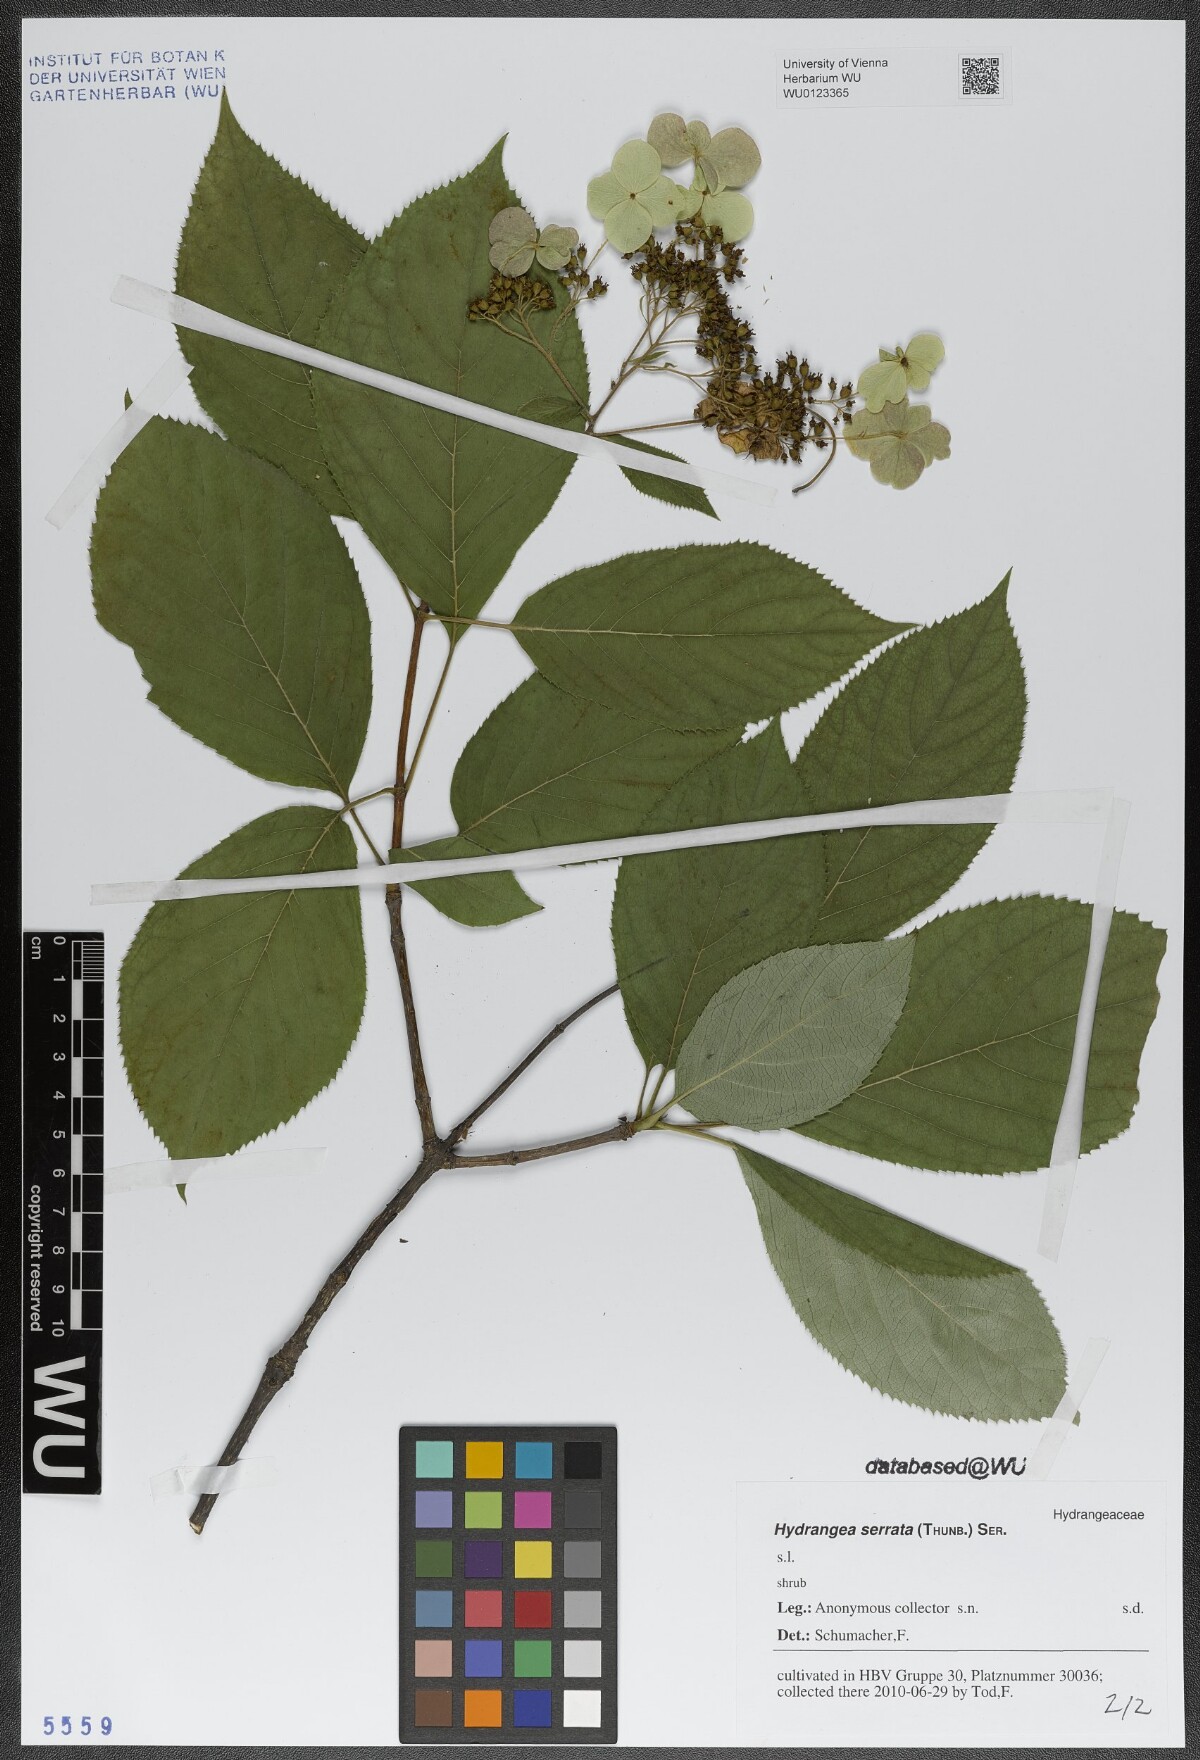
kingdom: Plantae
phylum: Tracheophyta
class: Magnoliopsida
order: Cornales
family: Hydrangeaceae
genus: Hydrangea
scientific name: Hydrangea serrata
